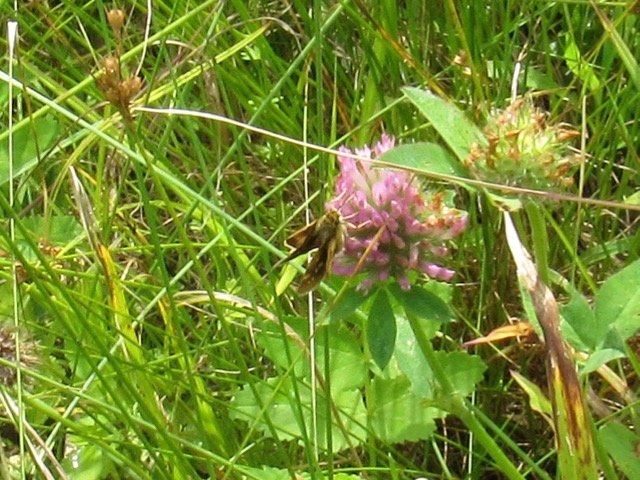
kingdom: Animalia
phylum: Arthropoda
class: Insecta
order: Lepidoptera
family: Hesperiidae
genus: Polites
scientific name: Polites themistocles
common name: Tawny-edged Skipper
